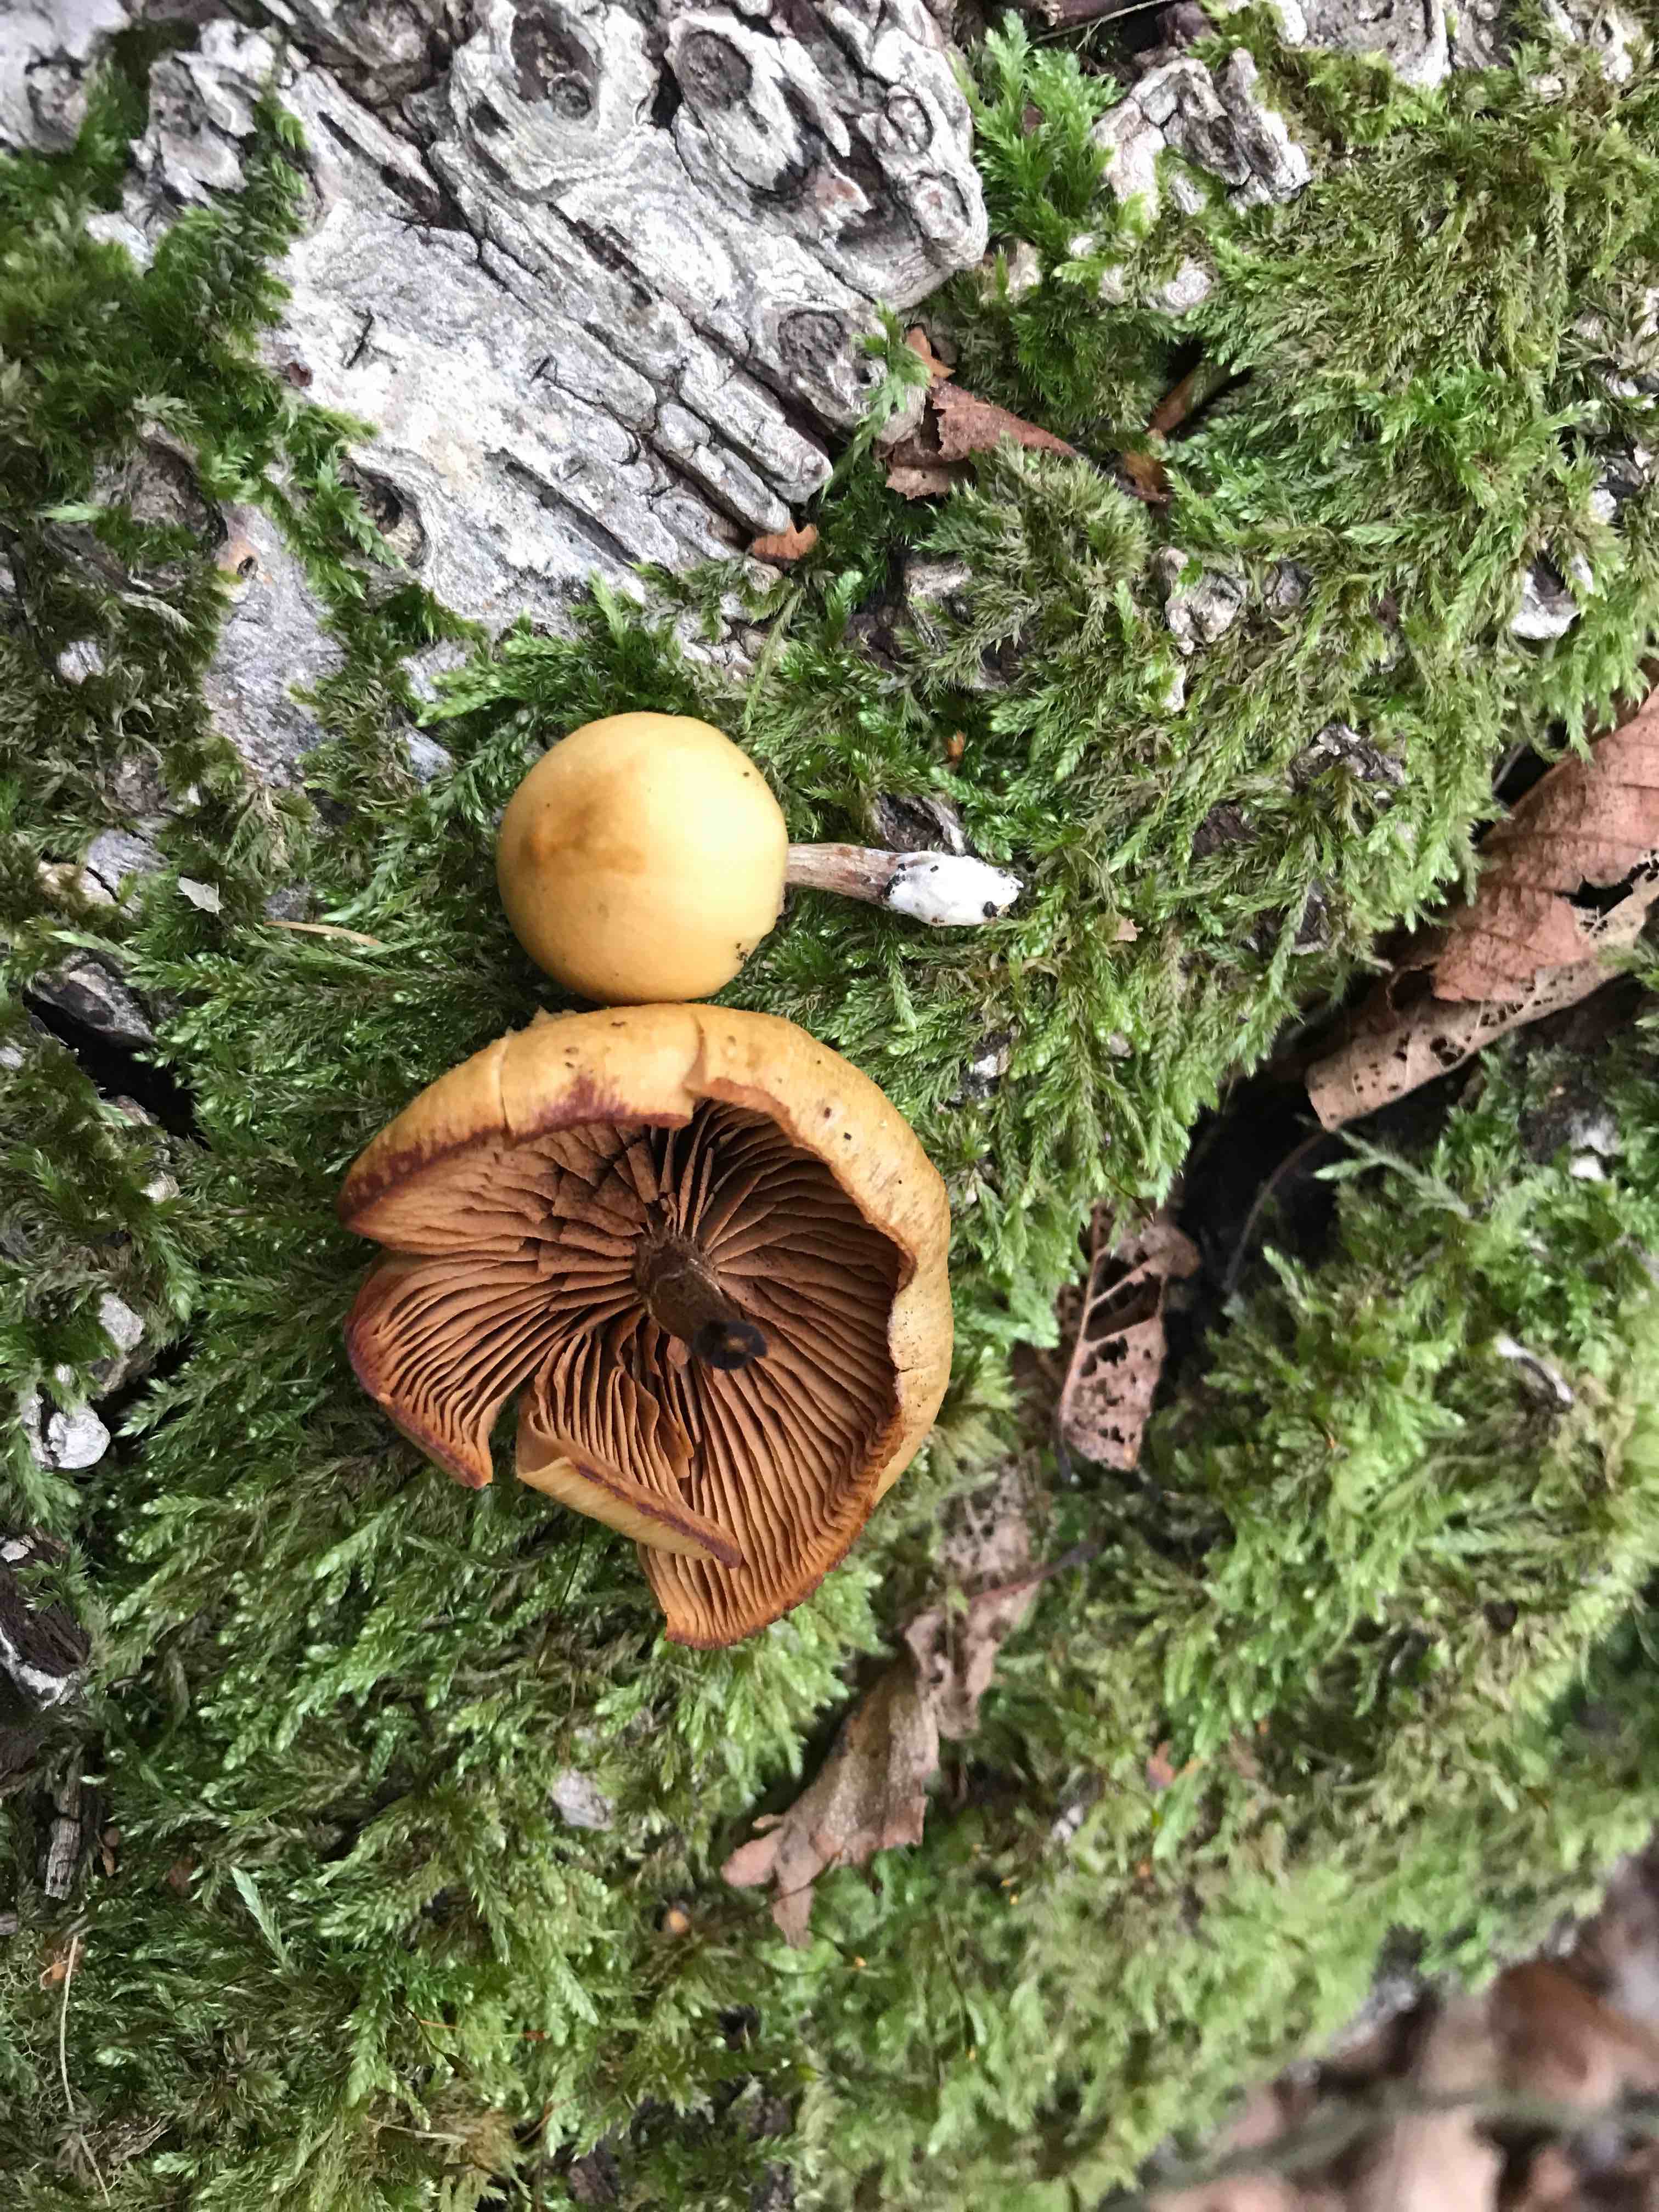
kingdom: Fungi
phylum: Basidiomycota
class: Agaricomycetes
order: Agaricales
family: Hymenogastraceae
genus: Galerina
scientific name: Galerina marginata
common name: randbæltet hjelmhat
